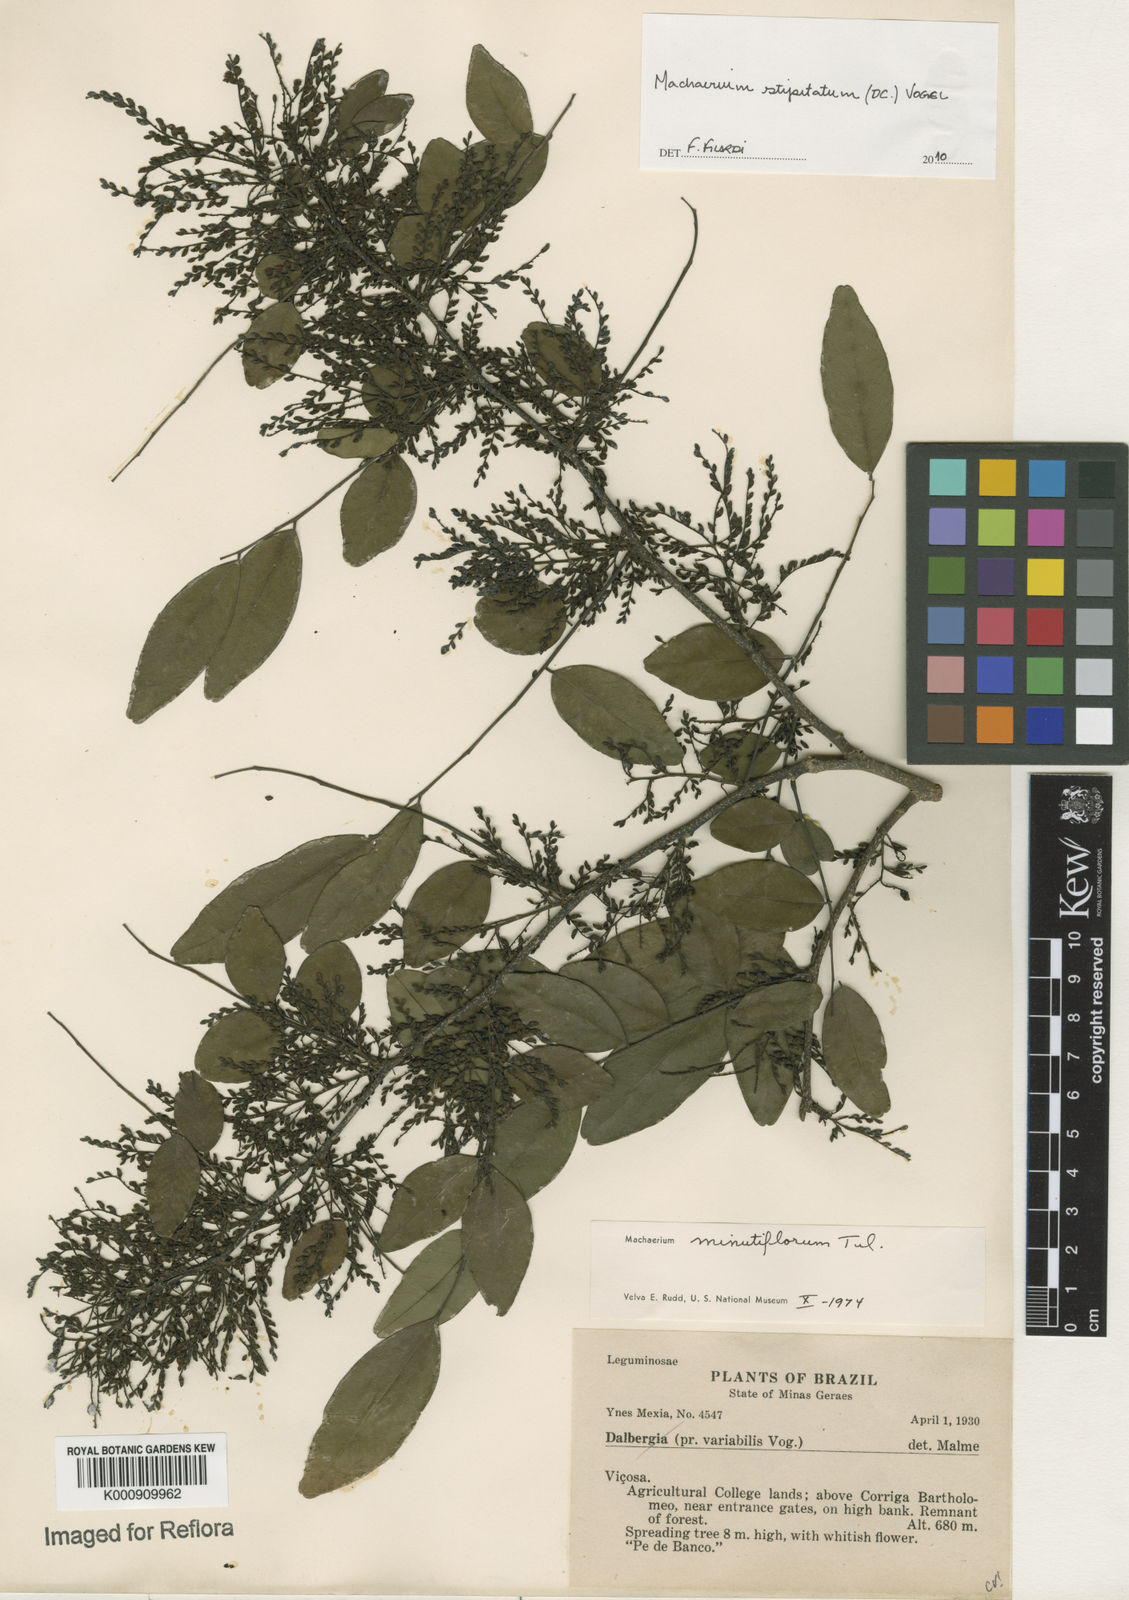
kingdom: Plantae
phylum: Tracheophyta
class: Magnoliopsida
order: Fabales
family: Fabaceae
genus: Machaerium
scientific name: Machaerium stipitatum
